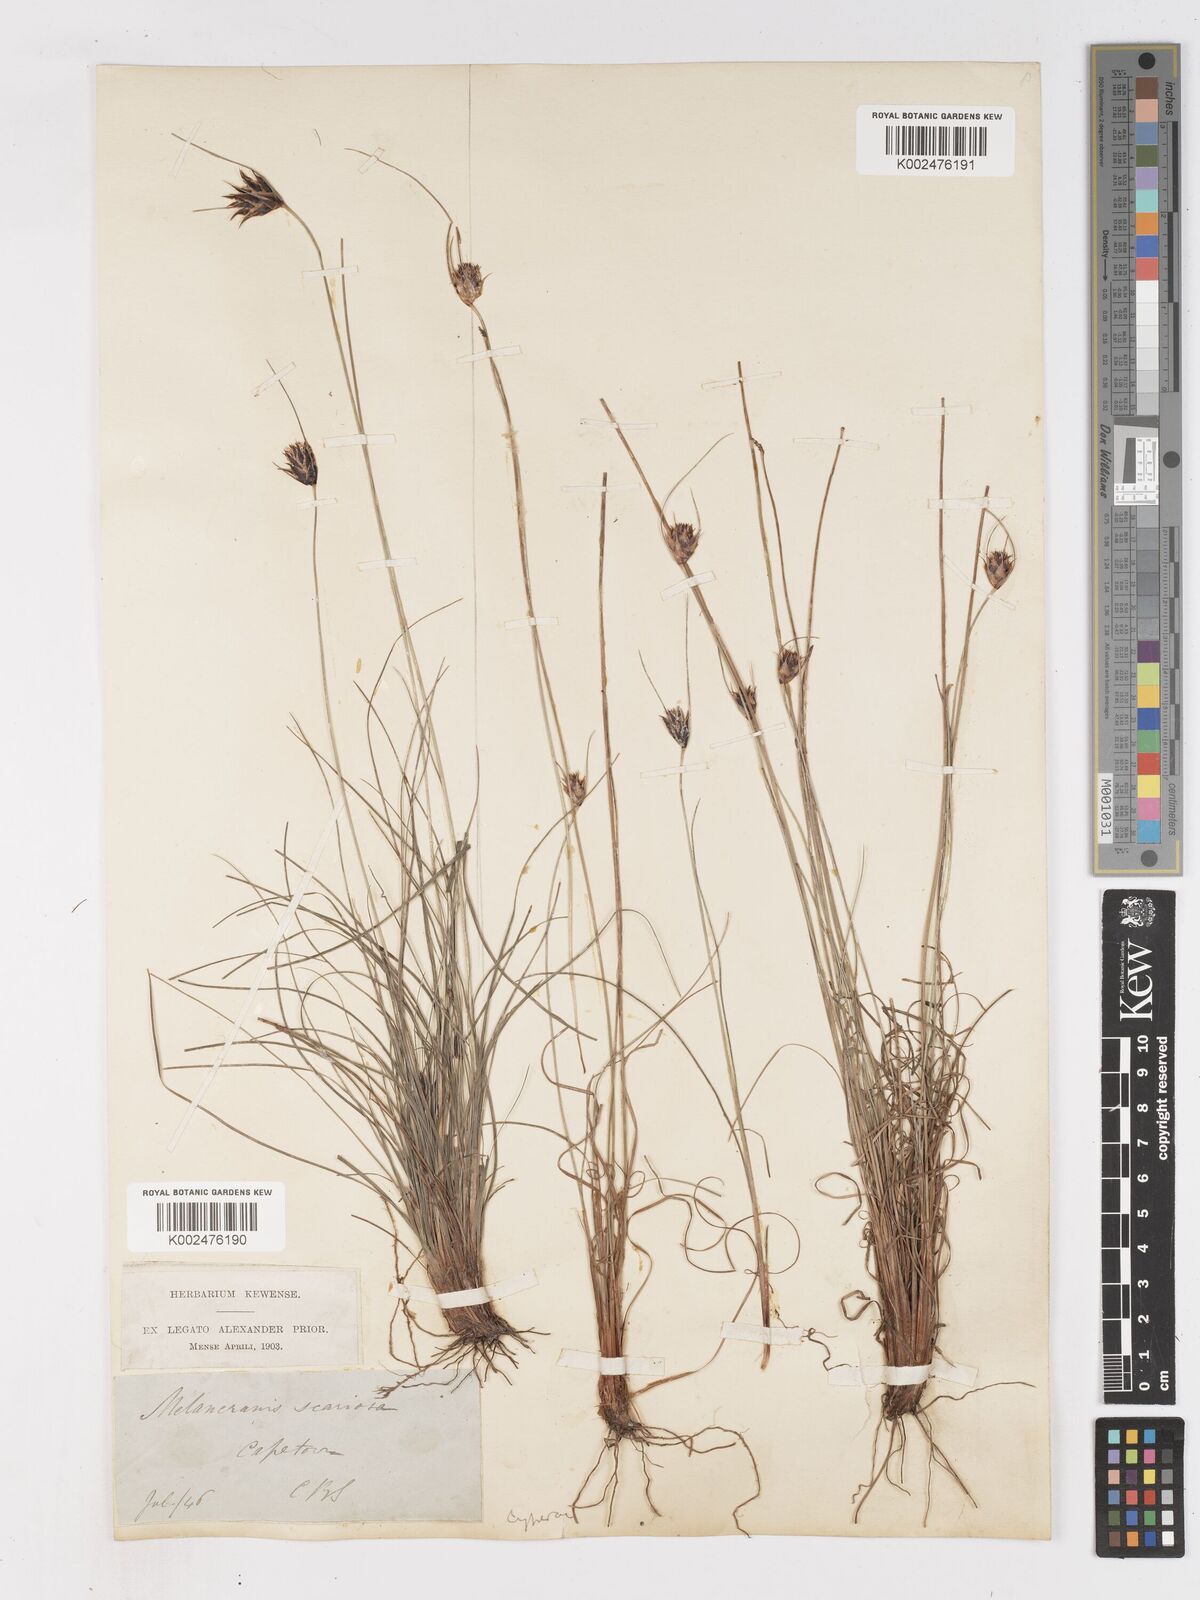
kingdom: Plantae
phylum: Tracheophyta
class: Liliopsida
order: Poales
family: Cyperaceae
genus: Ficinia
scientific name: Ficinia nigrescens
